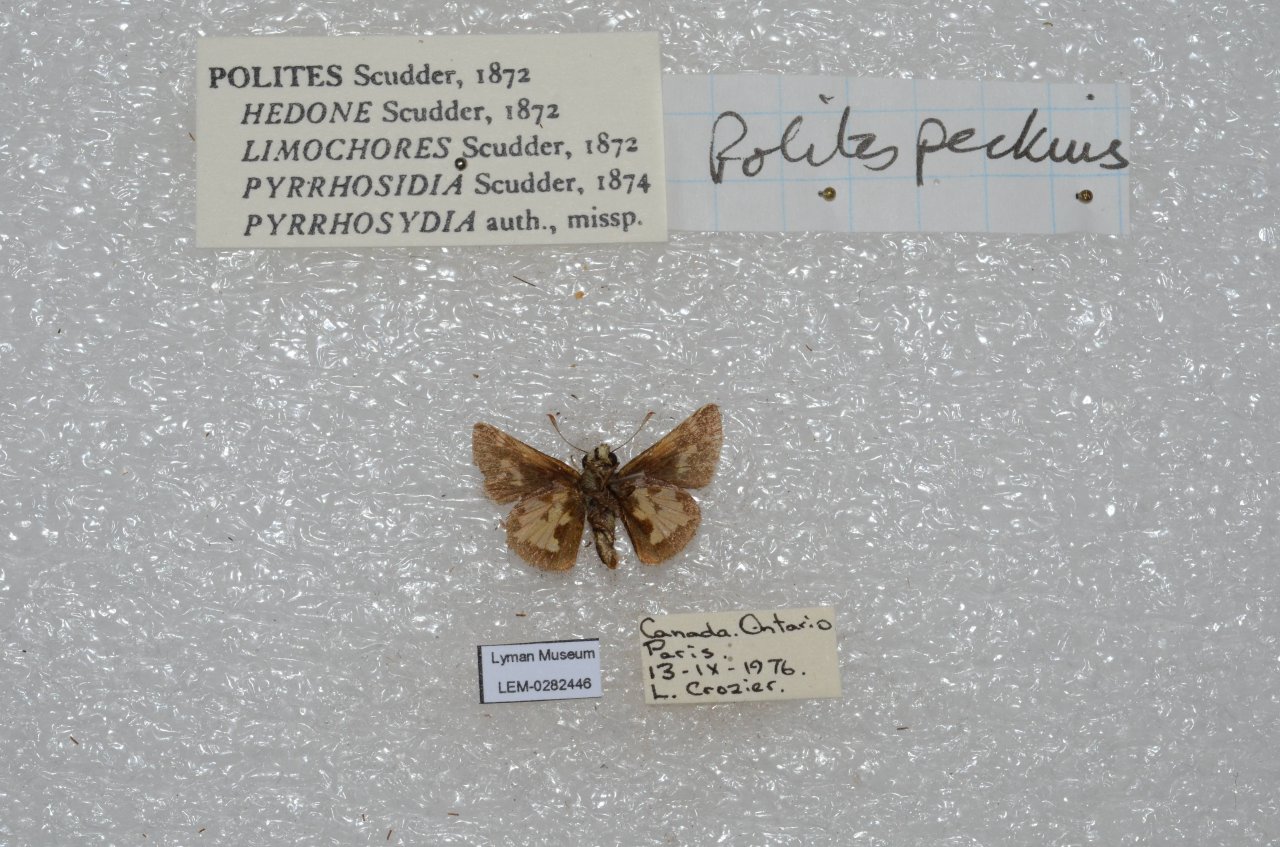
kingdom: Animalia
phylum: Arthropoda
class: Insecta
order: Lepidoptera
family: Hesperiidae
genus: Polites
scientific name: Polites coras
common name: Peck's Skipper
